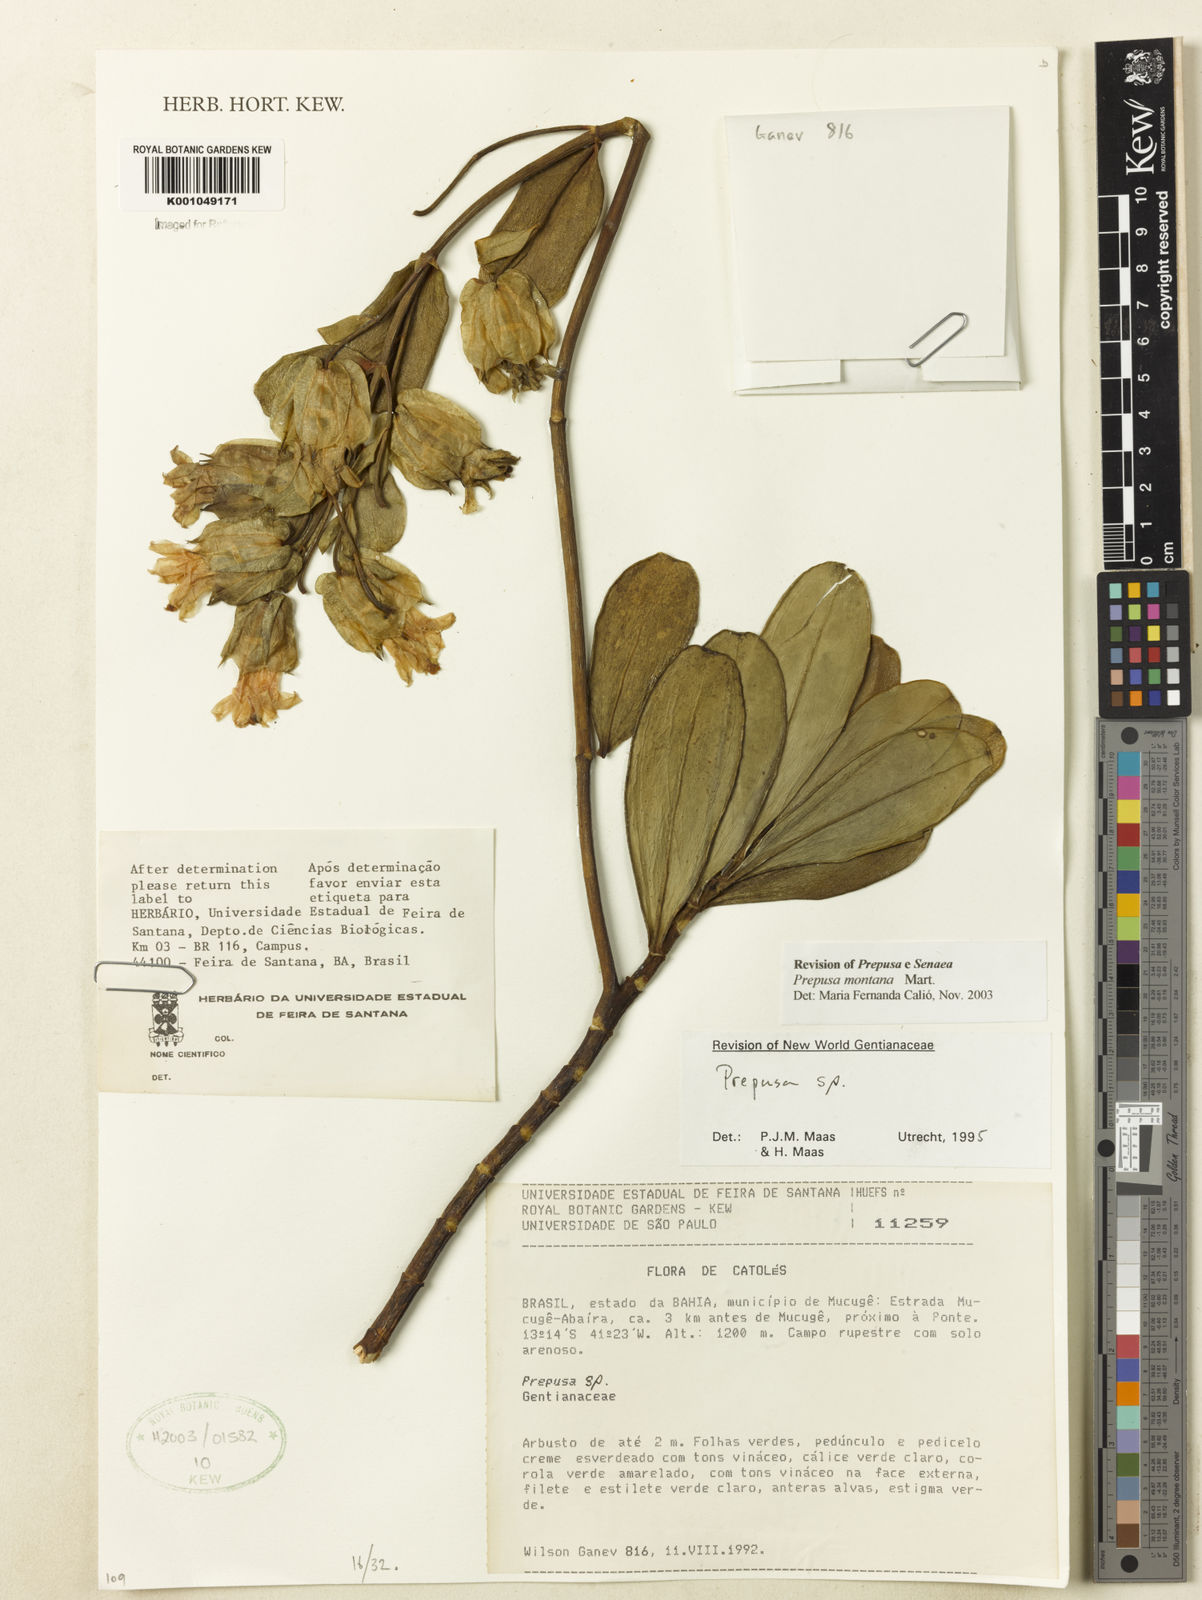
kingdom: Plantae
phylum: Tracheophyta
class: Magnoliopsida
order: Gentianales
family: Gentianaceae
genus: Prepusa
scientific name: Prepusa montana
